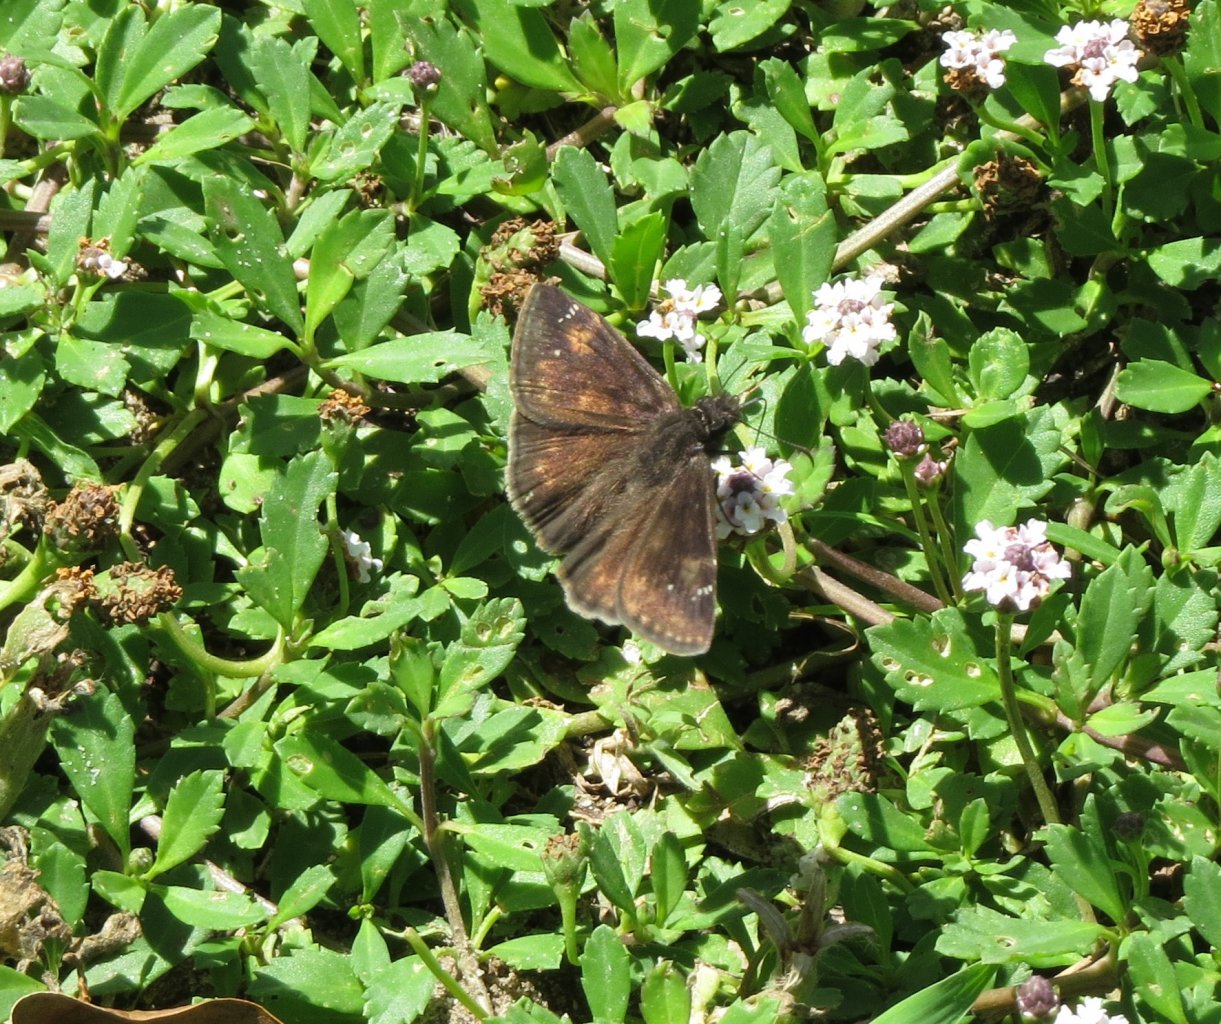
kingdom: Animalia
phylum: Arthropoda
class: Insecta
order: Lepidoptera
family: Hesperiidae
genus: Erynnis
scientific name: Erynnis zarucco
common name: Zarucco Duskywing
